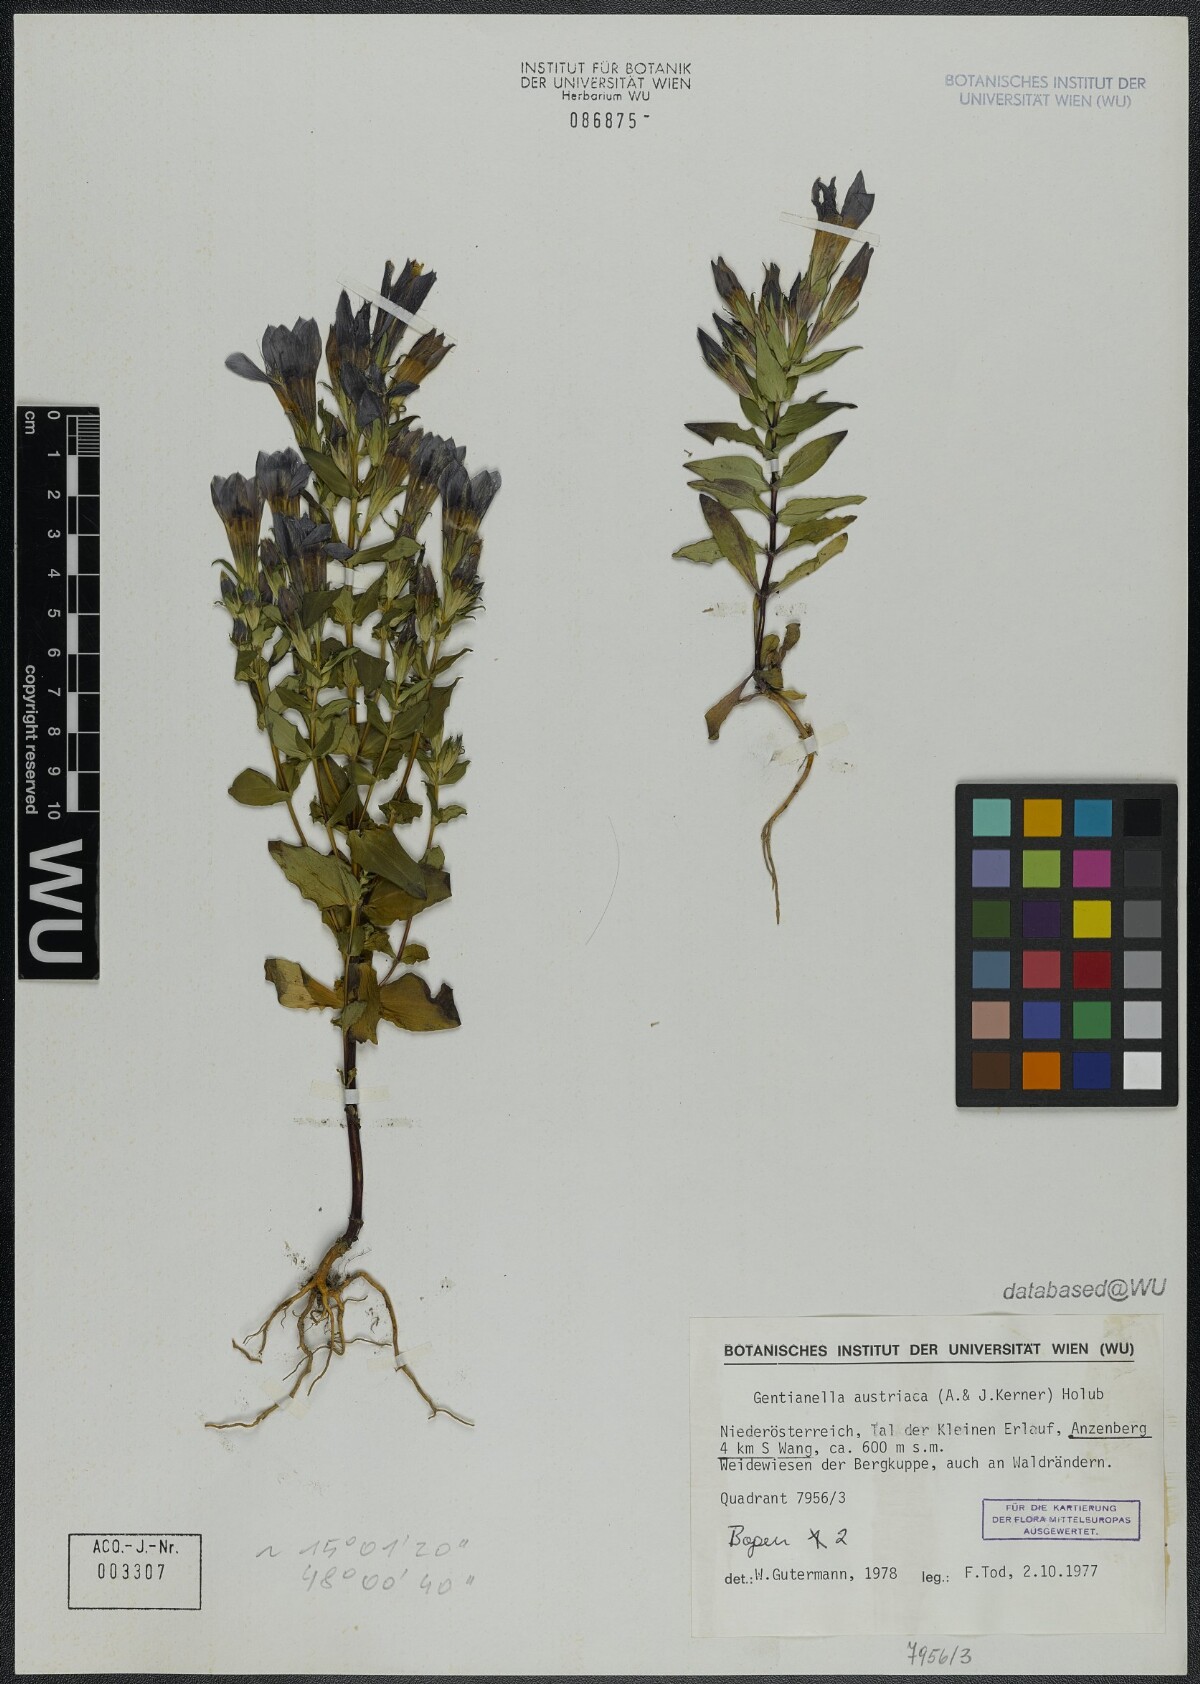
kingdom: Plantae
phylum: Tracheophyta
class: Magnoliopsida
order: Gentianales
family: Gentianaceae
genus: Gentianella
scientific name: Gentianella austriaca
